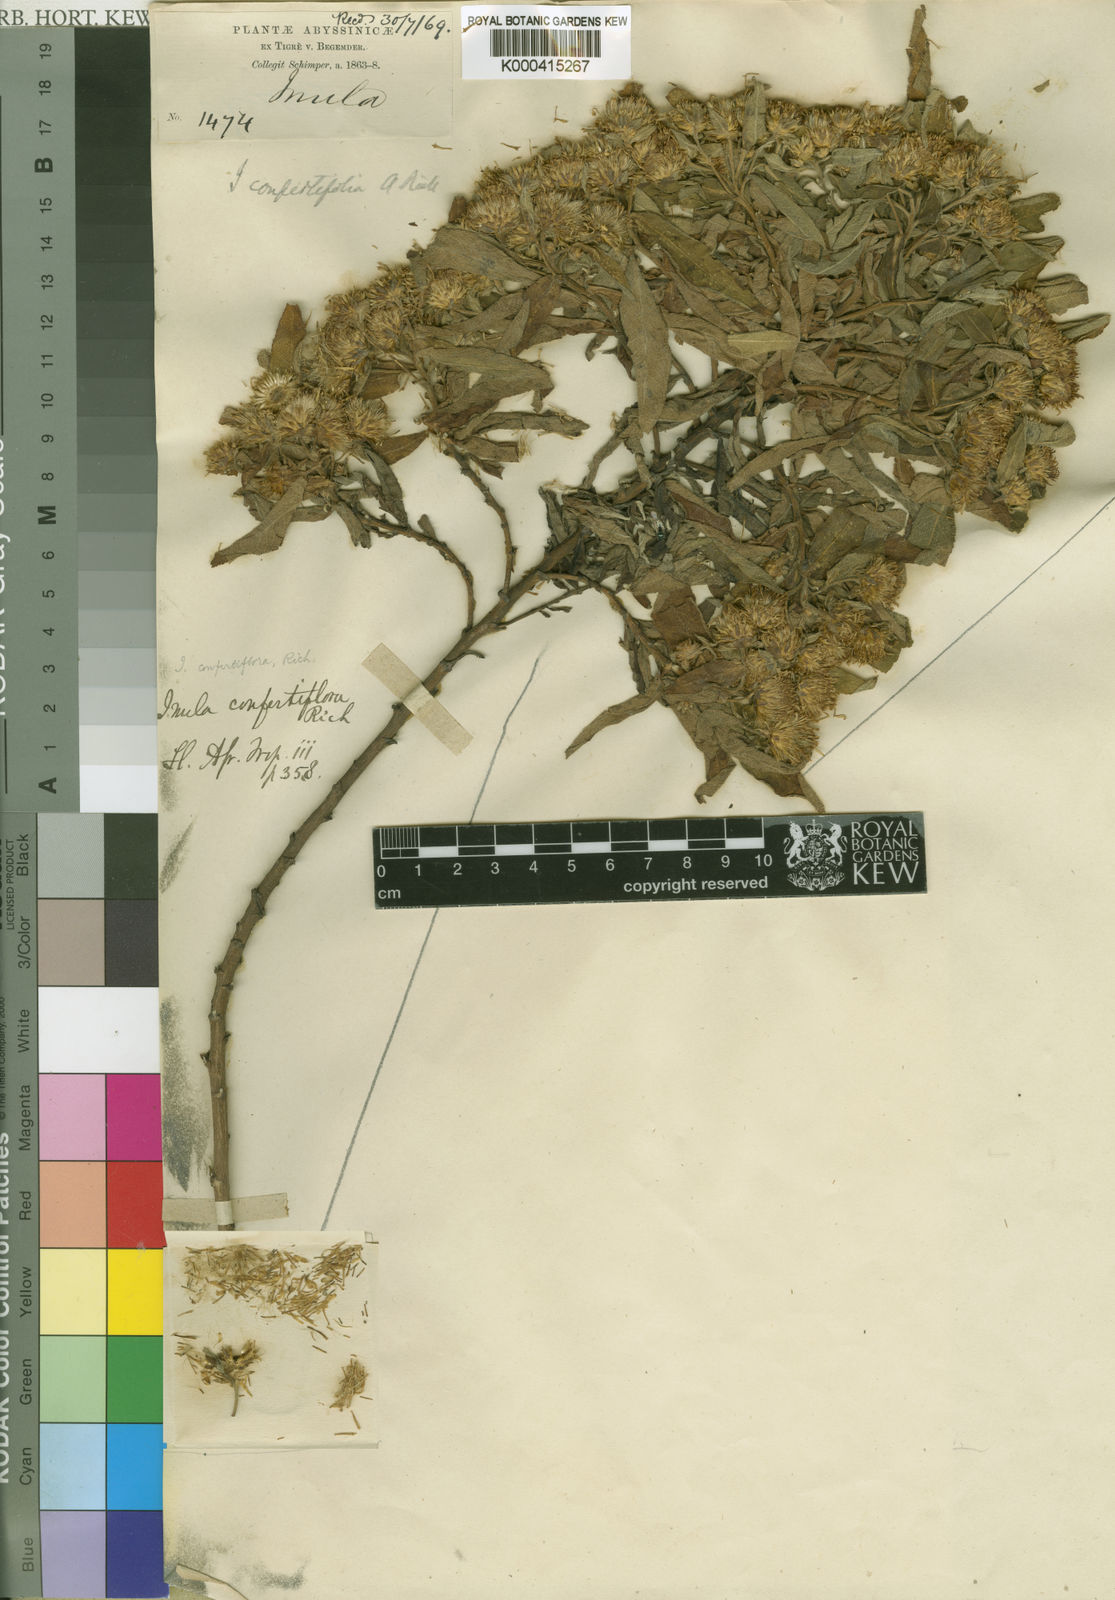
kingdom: Plantae
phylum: Tracheophyta
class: Magnoliopsida
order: Asterales
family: Asteraceae
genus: Pentanema
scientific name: Pentanema confertiflorum
